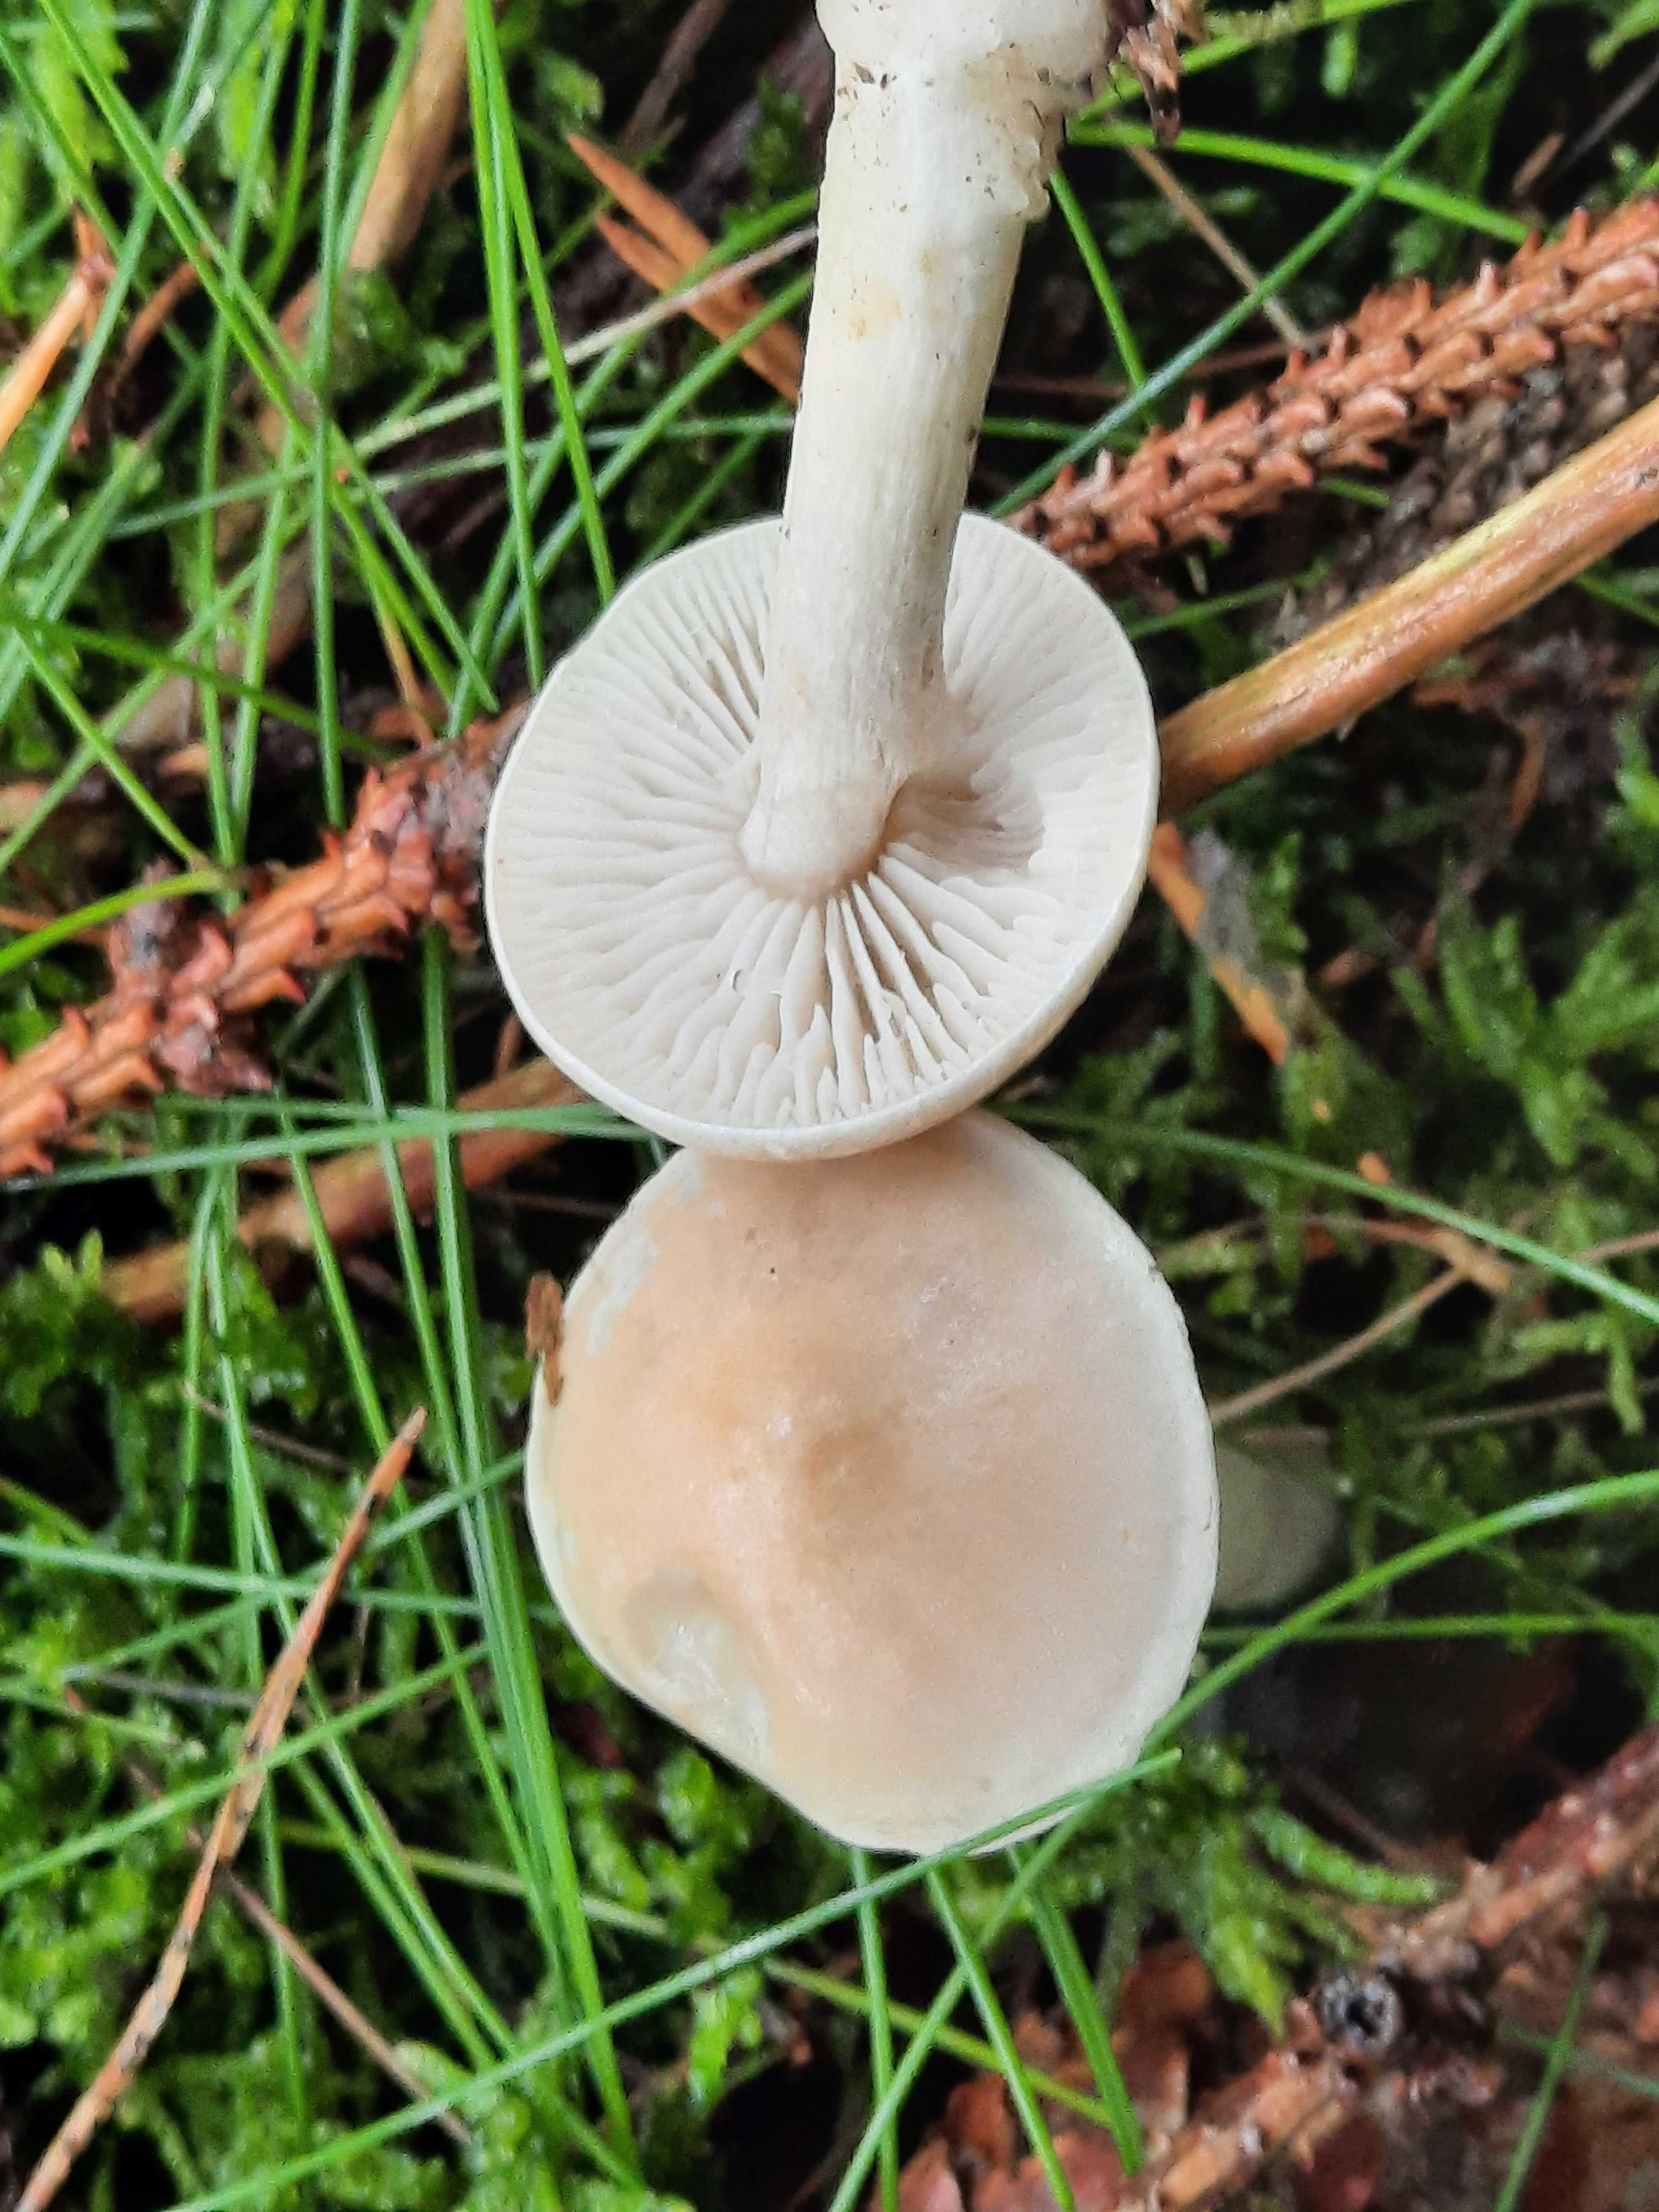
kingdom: Fungi
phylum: Basidiomycota
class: Agaricomycetes
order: Agaricales
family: Tricholomataceae
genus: Tricholoma
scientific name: Tricholoma inamoenum
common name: højstokket ridderhat
